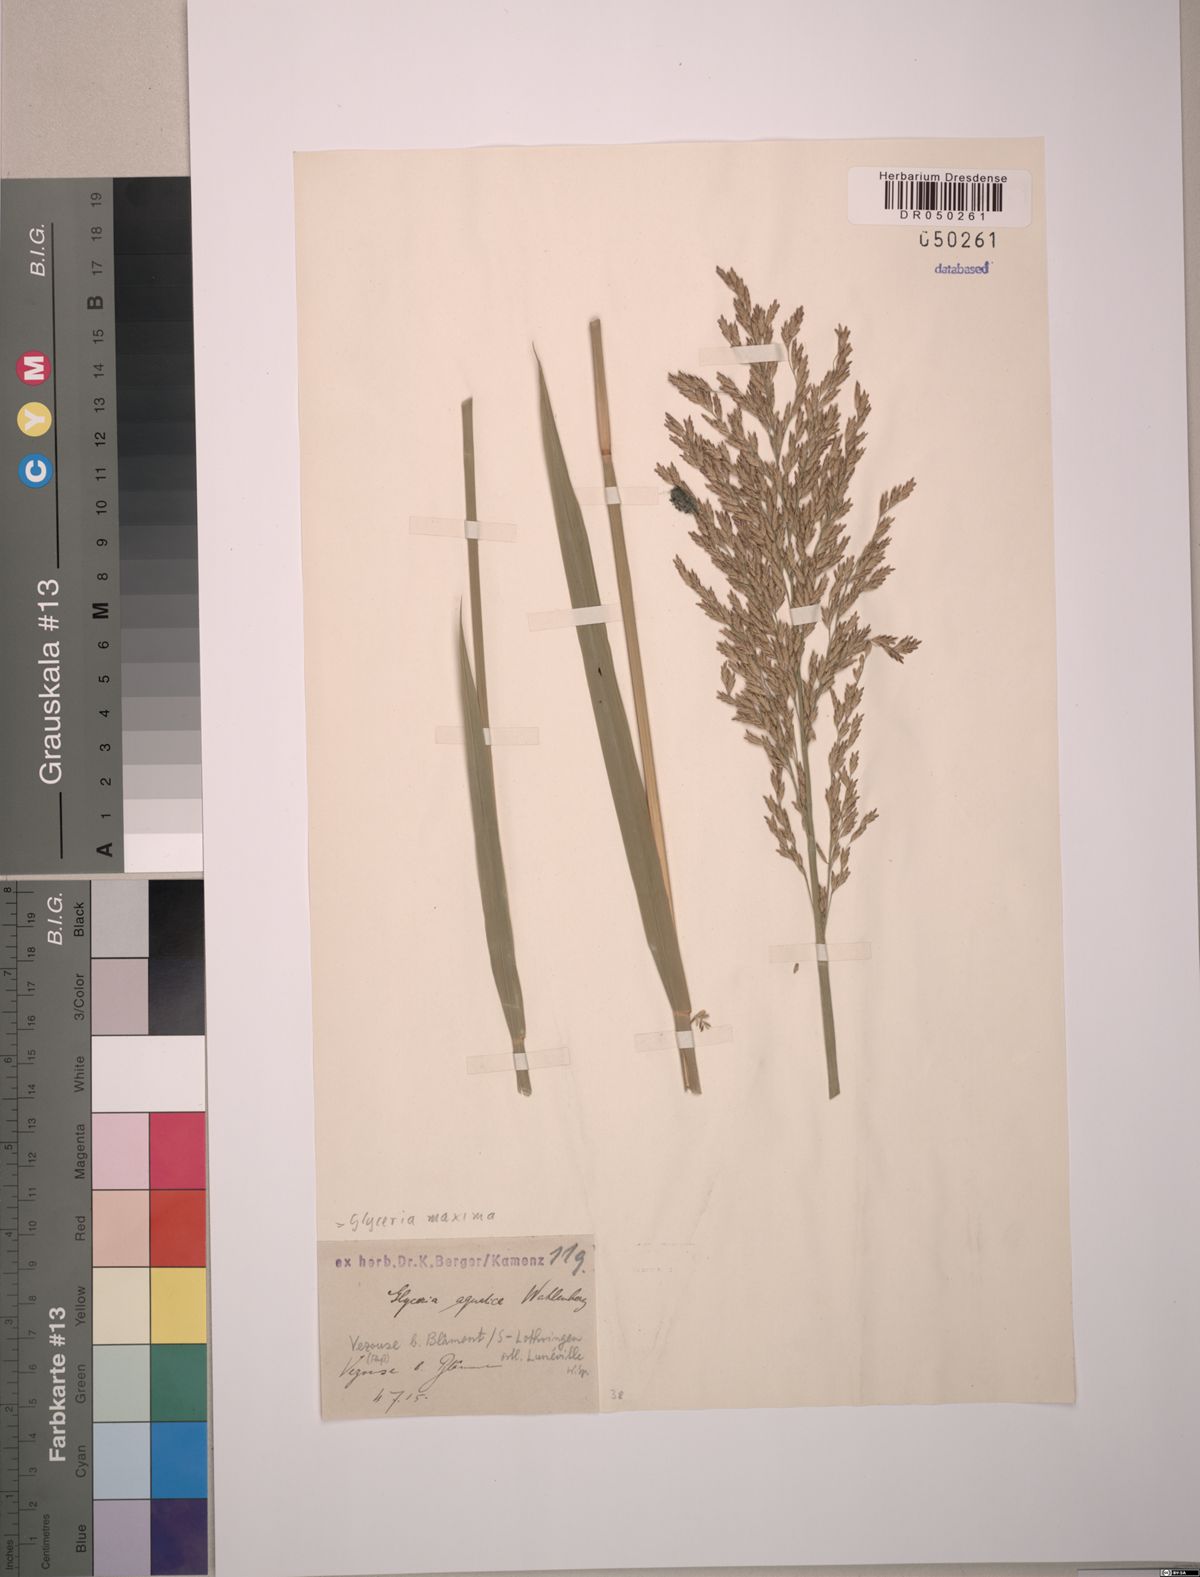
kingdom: Plantae
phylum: Tracheophyta
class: Liliopsida
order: Poales
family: Poaceae
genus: Glyceria
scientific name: Glyceria maxima
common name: Reed mannagrass
